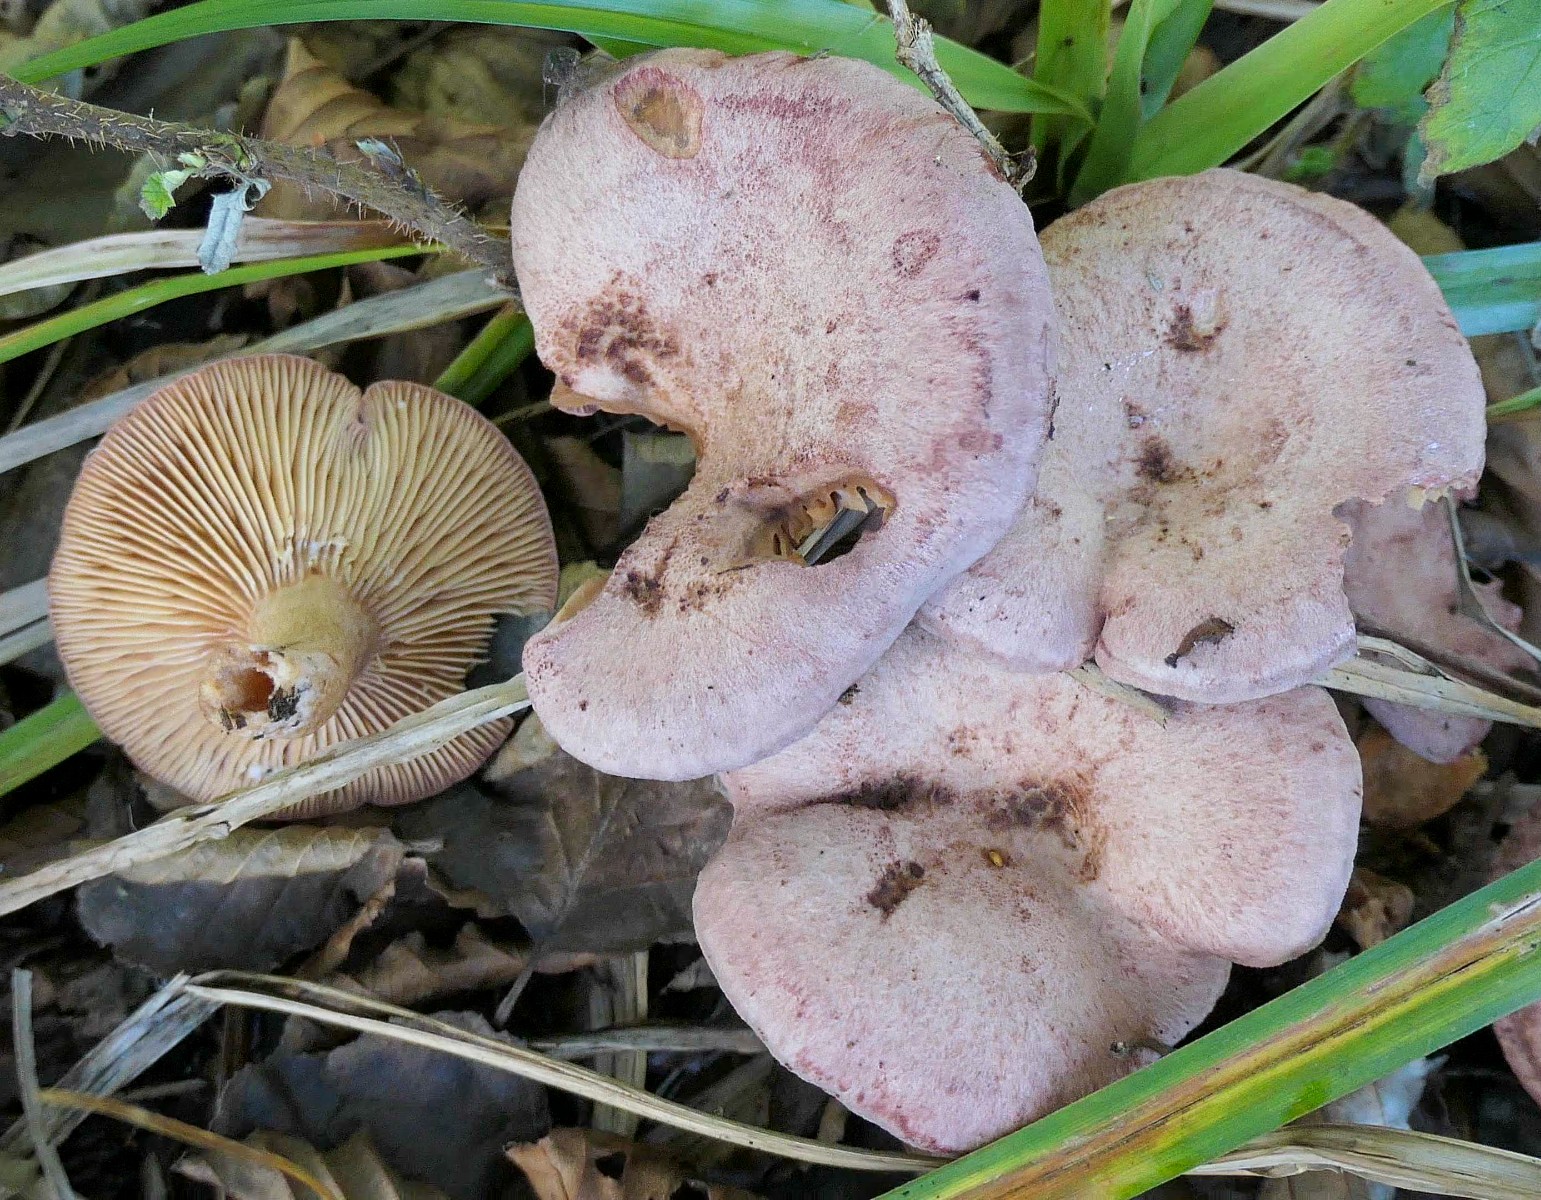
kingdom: Fungi
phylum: Basidiomycota
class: Agaricomycetes
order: Russulales
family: Russulaceae
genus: Lactarius
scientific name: Lactarius lilacinus
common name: lilla mælkehat
